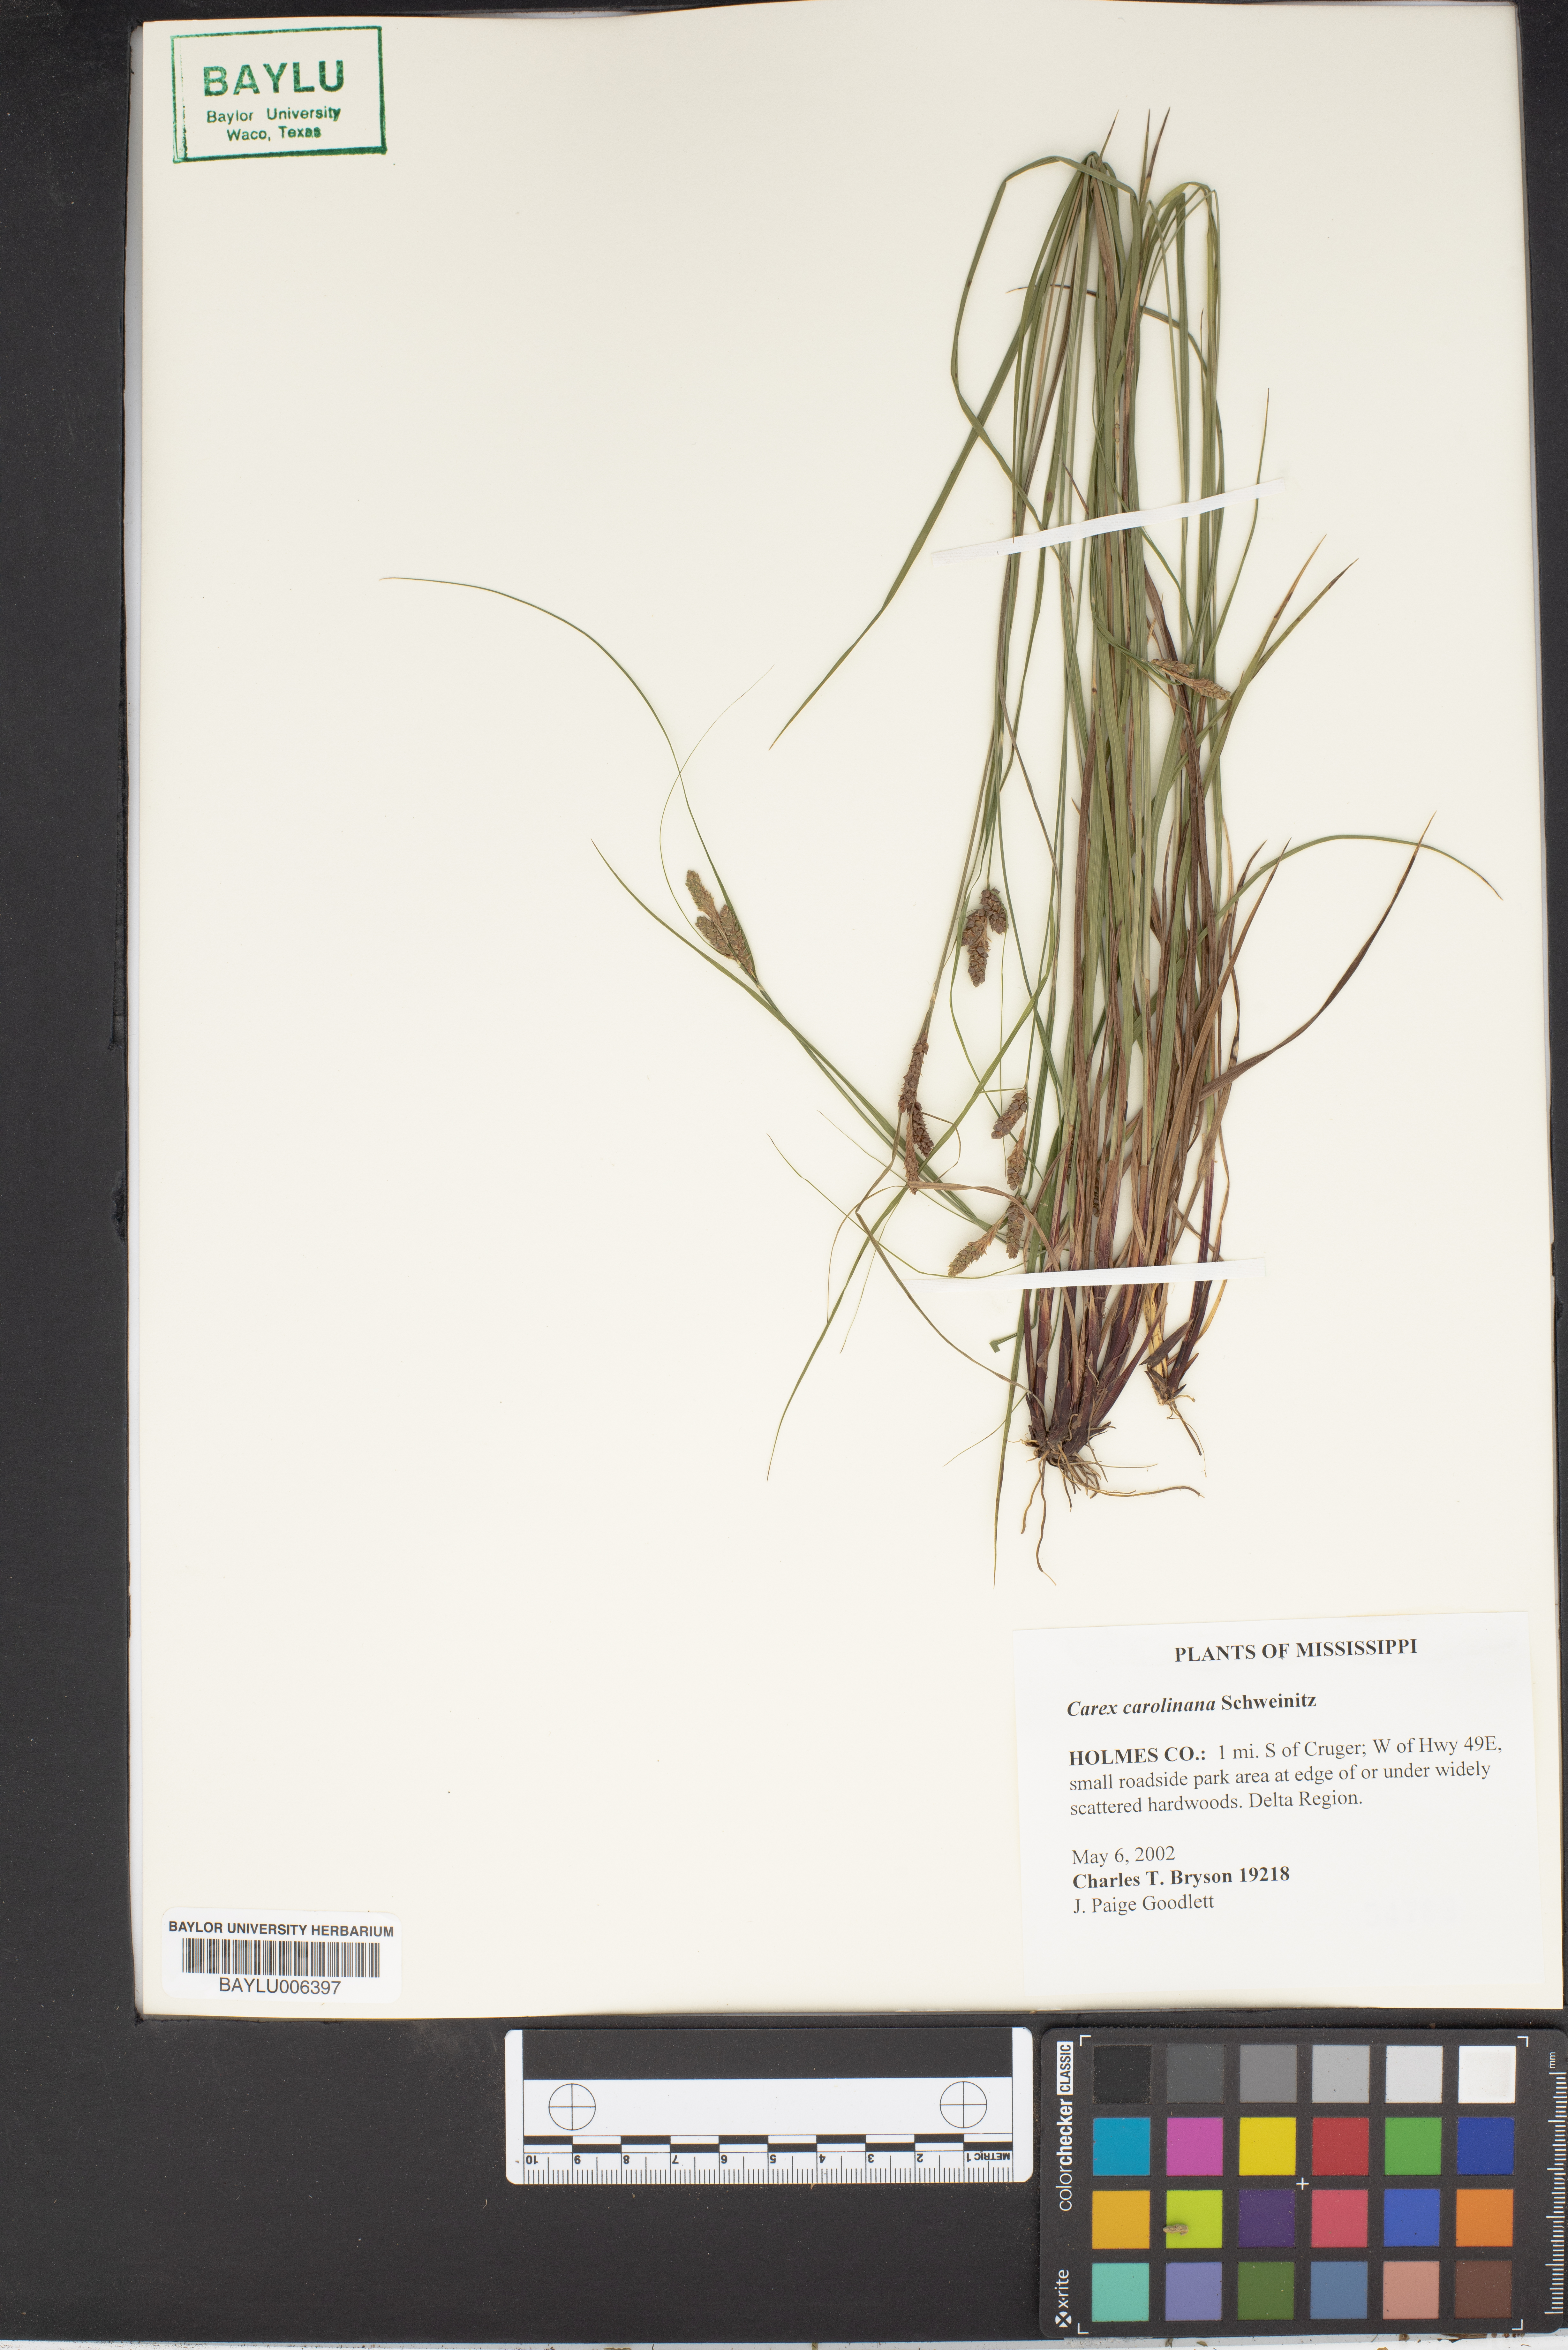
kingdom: Plantae
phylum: Tracheophyta
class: Liliopsida
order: Poales
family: Cyperaceae
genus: Carex
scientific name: Carex caroliniana
